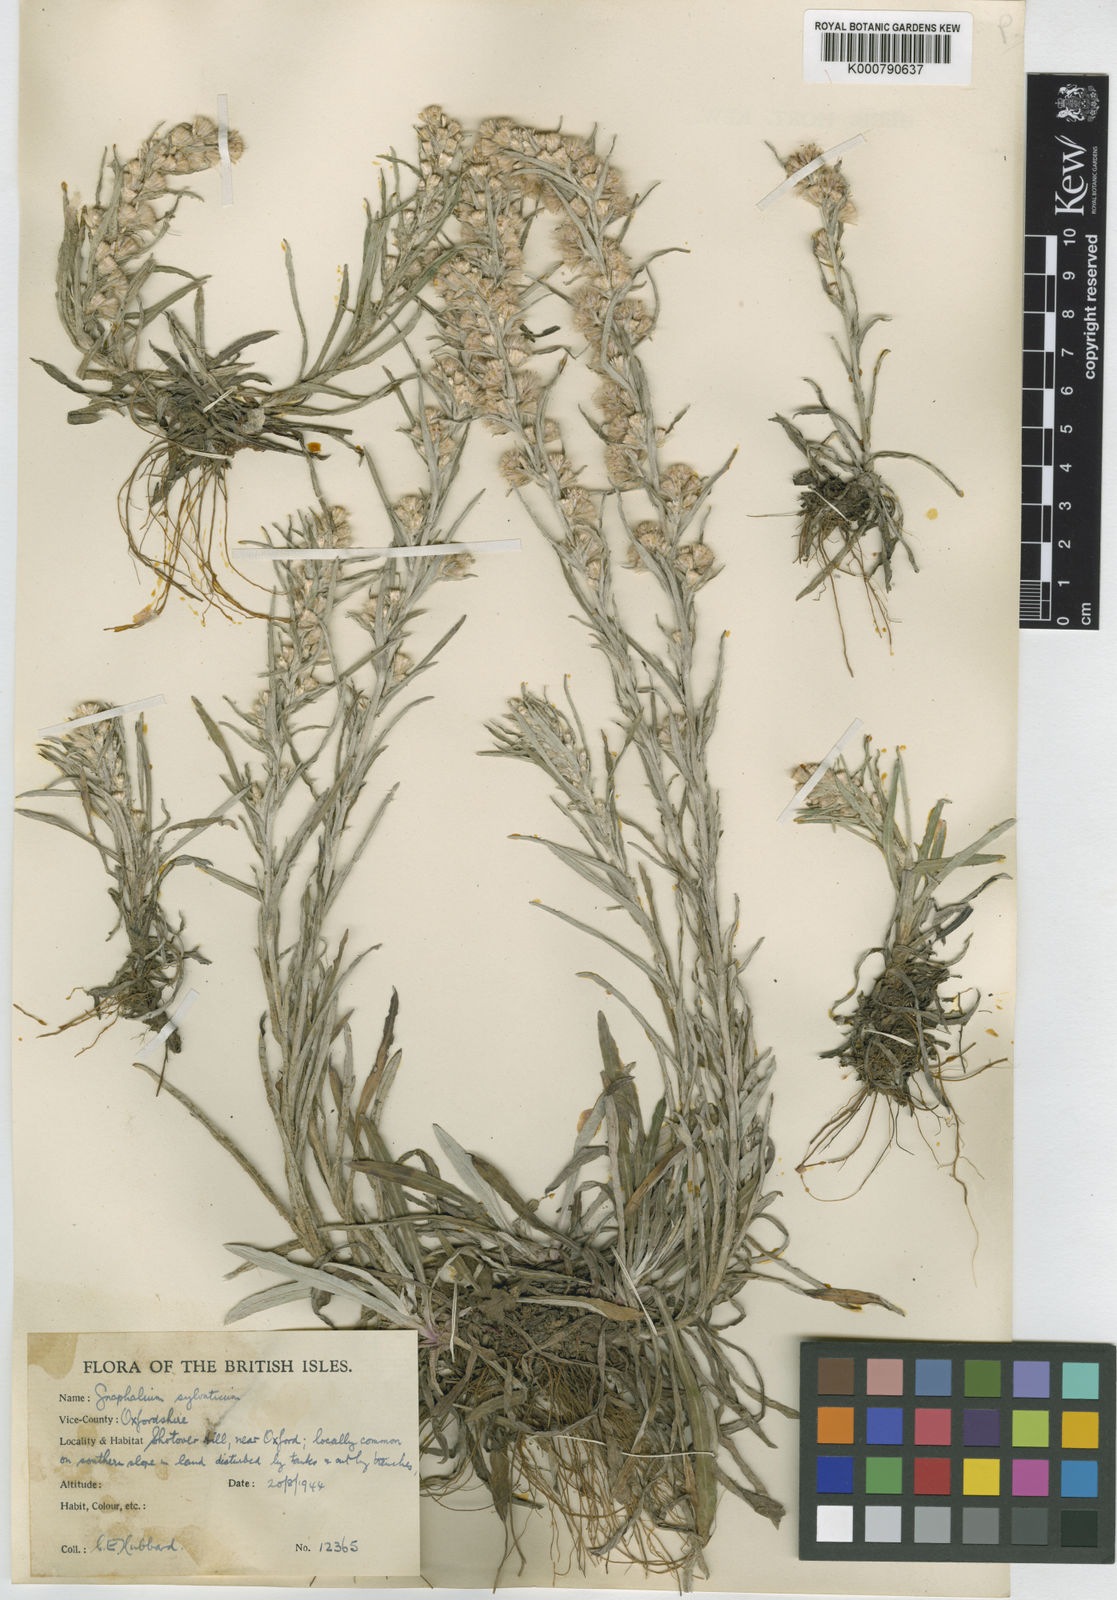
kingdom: Plantae
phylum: Tracheophyta
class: Magnoliopsida
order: Asterales
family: Asteraceae
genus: Omalotheca
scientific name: Omalotheca sylvatica
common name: Heath cudweed
